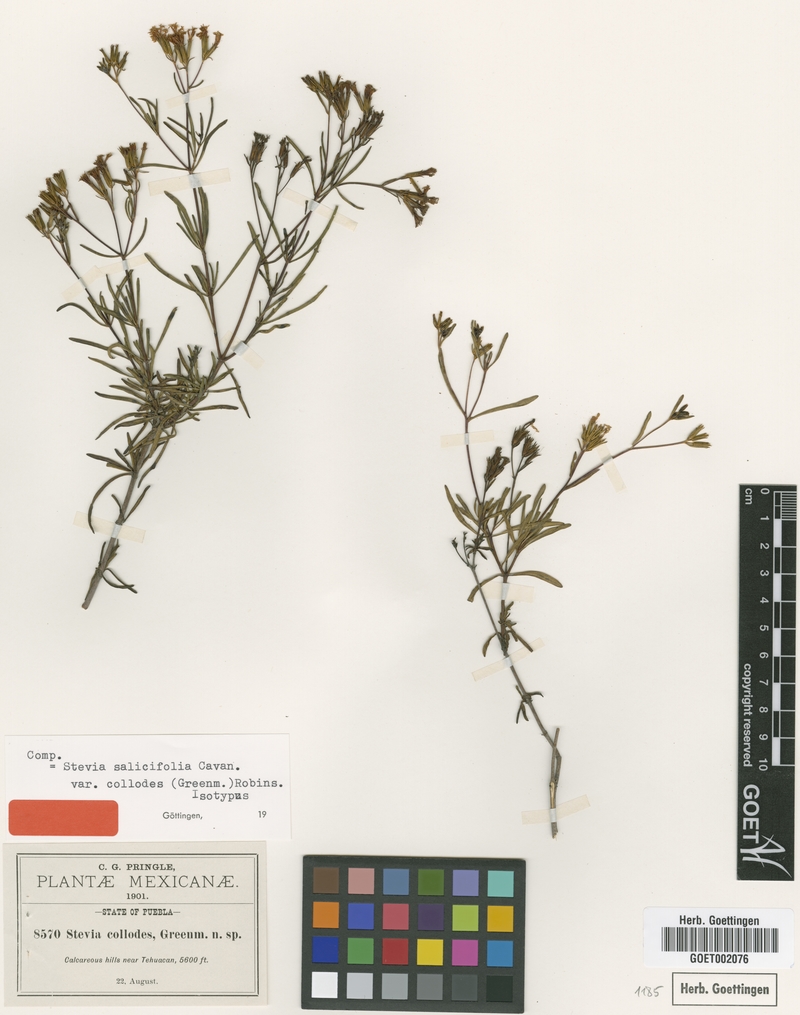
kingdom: Plantae
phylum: Tracheophyta
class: Magnoliopsida
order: Asterales
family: Asteraceae
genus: Stevia
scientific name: Stevia salicifolia
